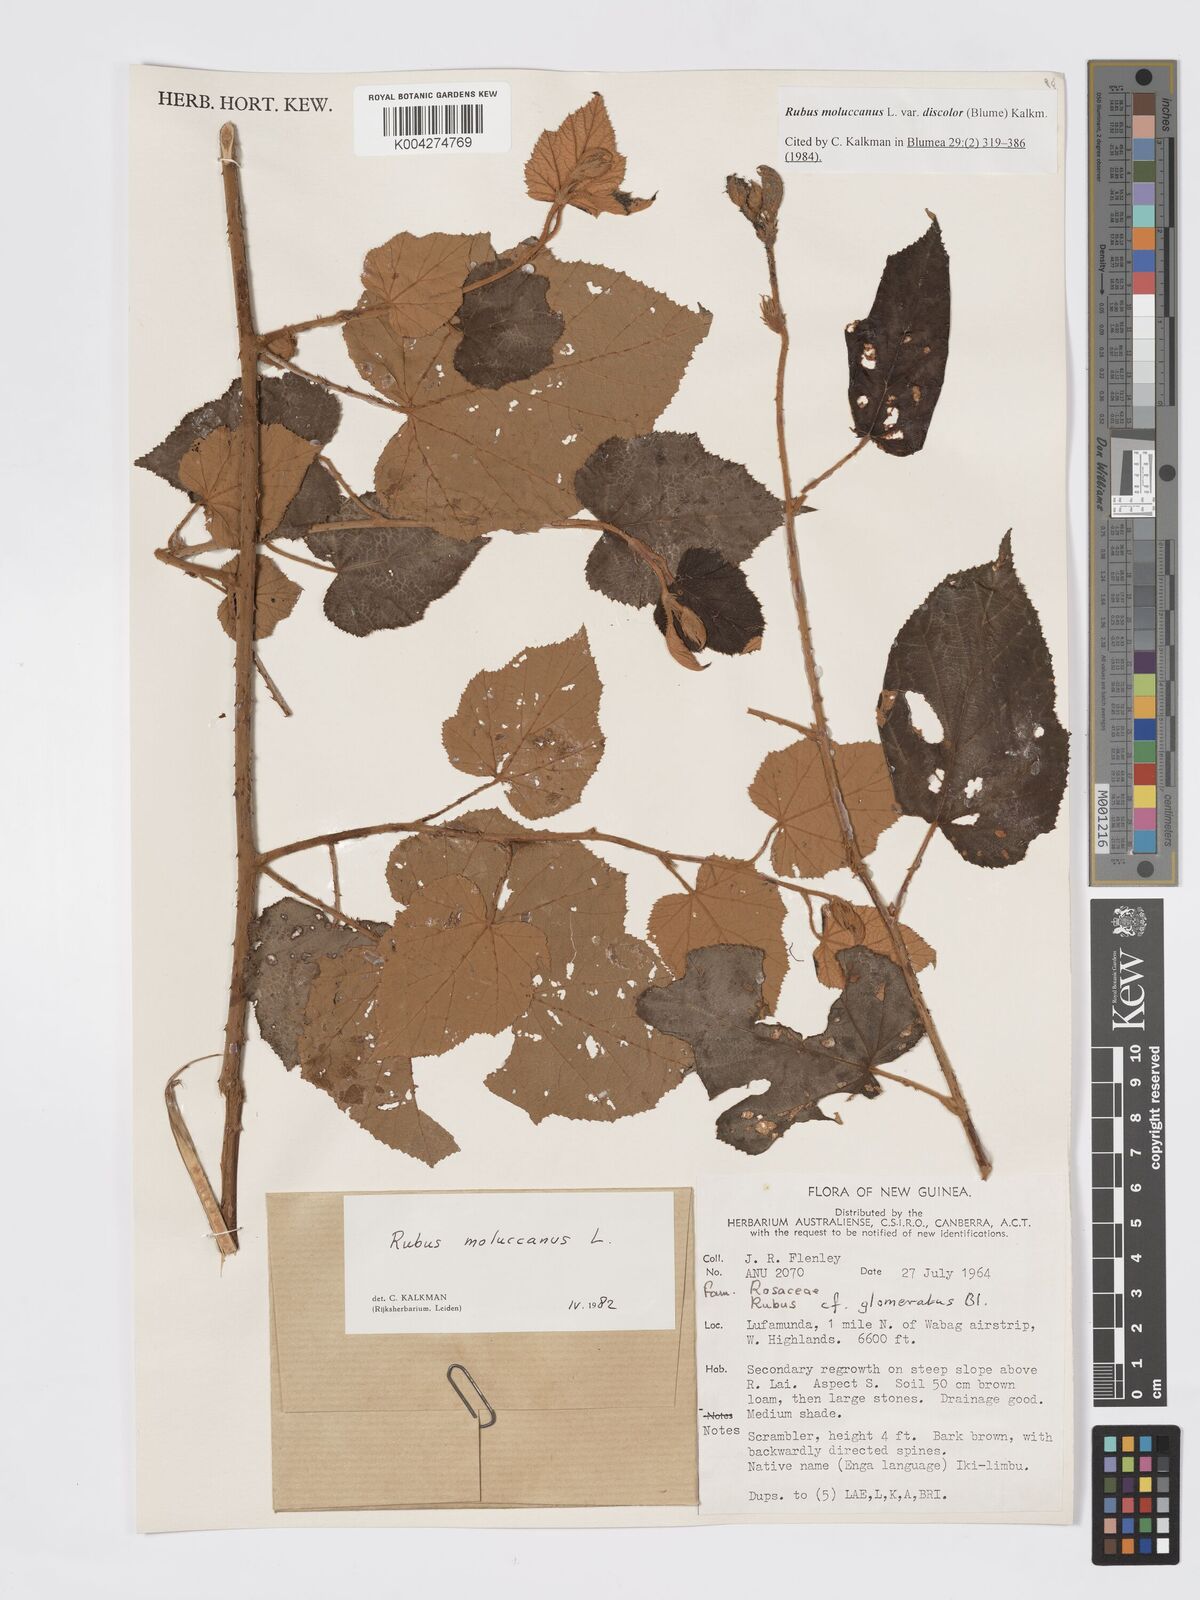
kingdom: Plantae
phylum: Tracheophyta
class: Magnoliopsida
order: Rosales
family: Rosaceae
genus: Rubus
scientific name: Rubus moluccanus
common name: Wild raspberry
